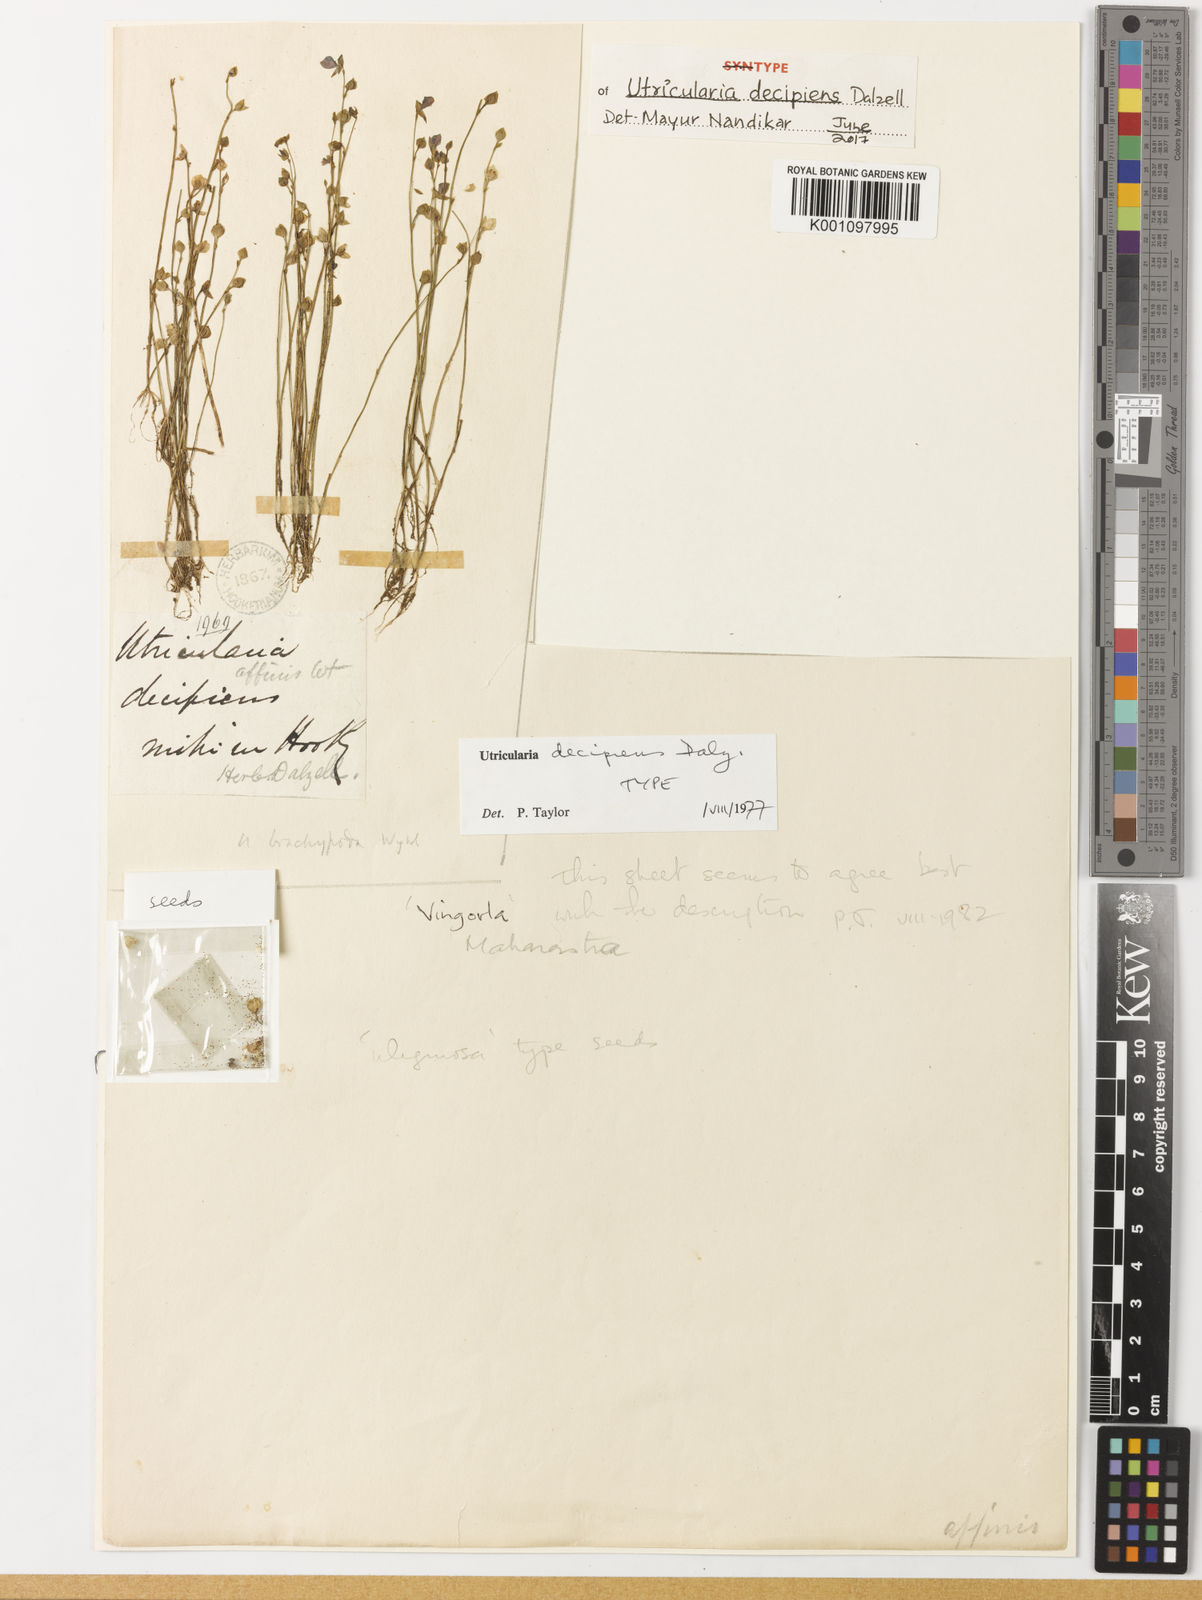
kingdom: Plantae
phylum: Tracheophyta
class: Magnoliopsida
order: Lamiales
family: Lentibulariaceae
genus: Utricularia
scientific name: Utricularia uliginosa
